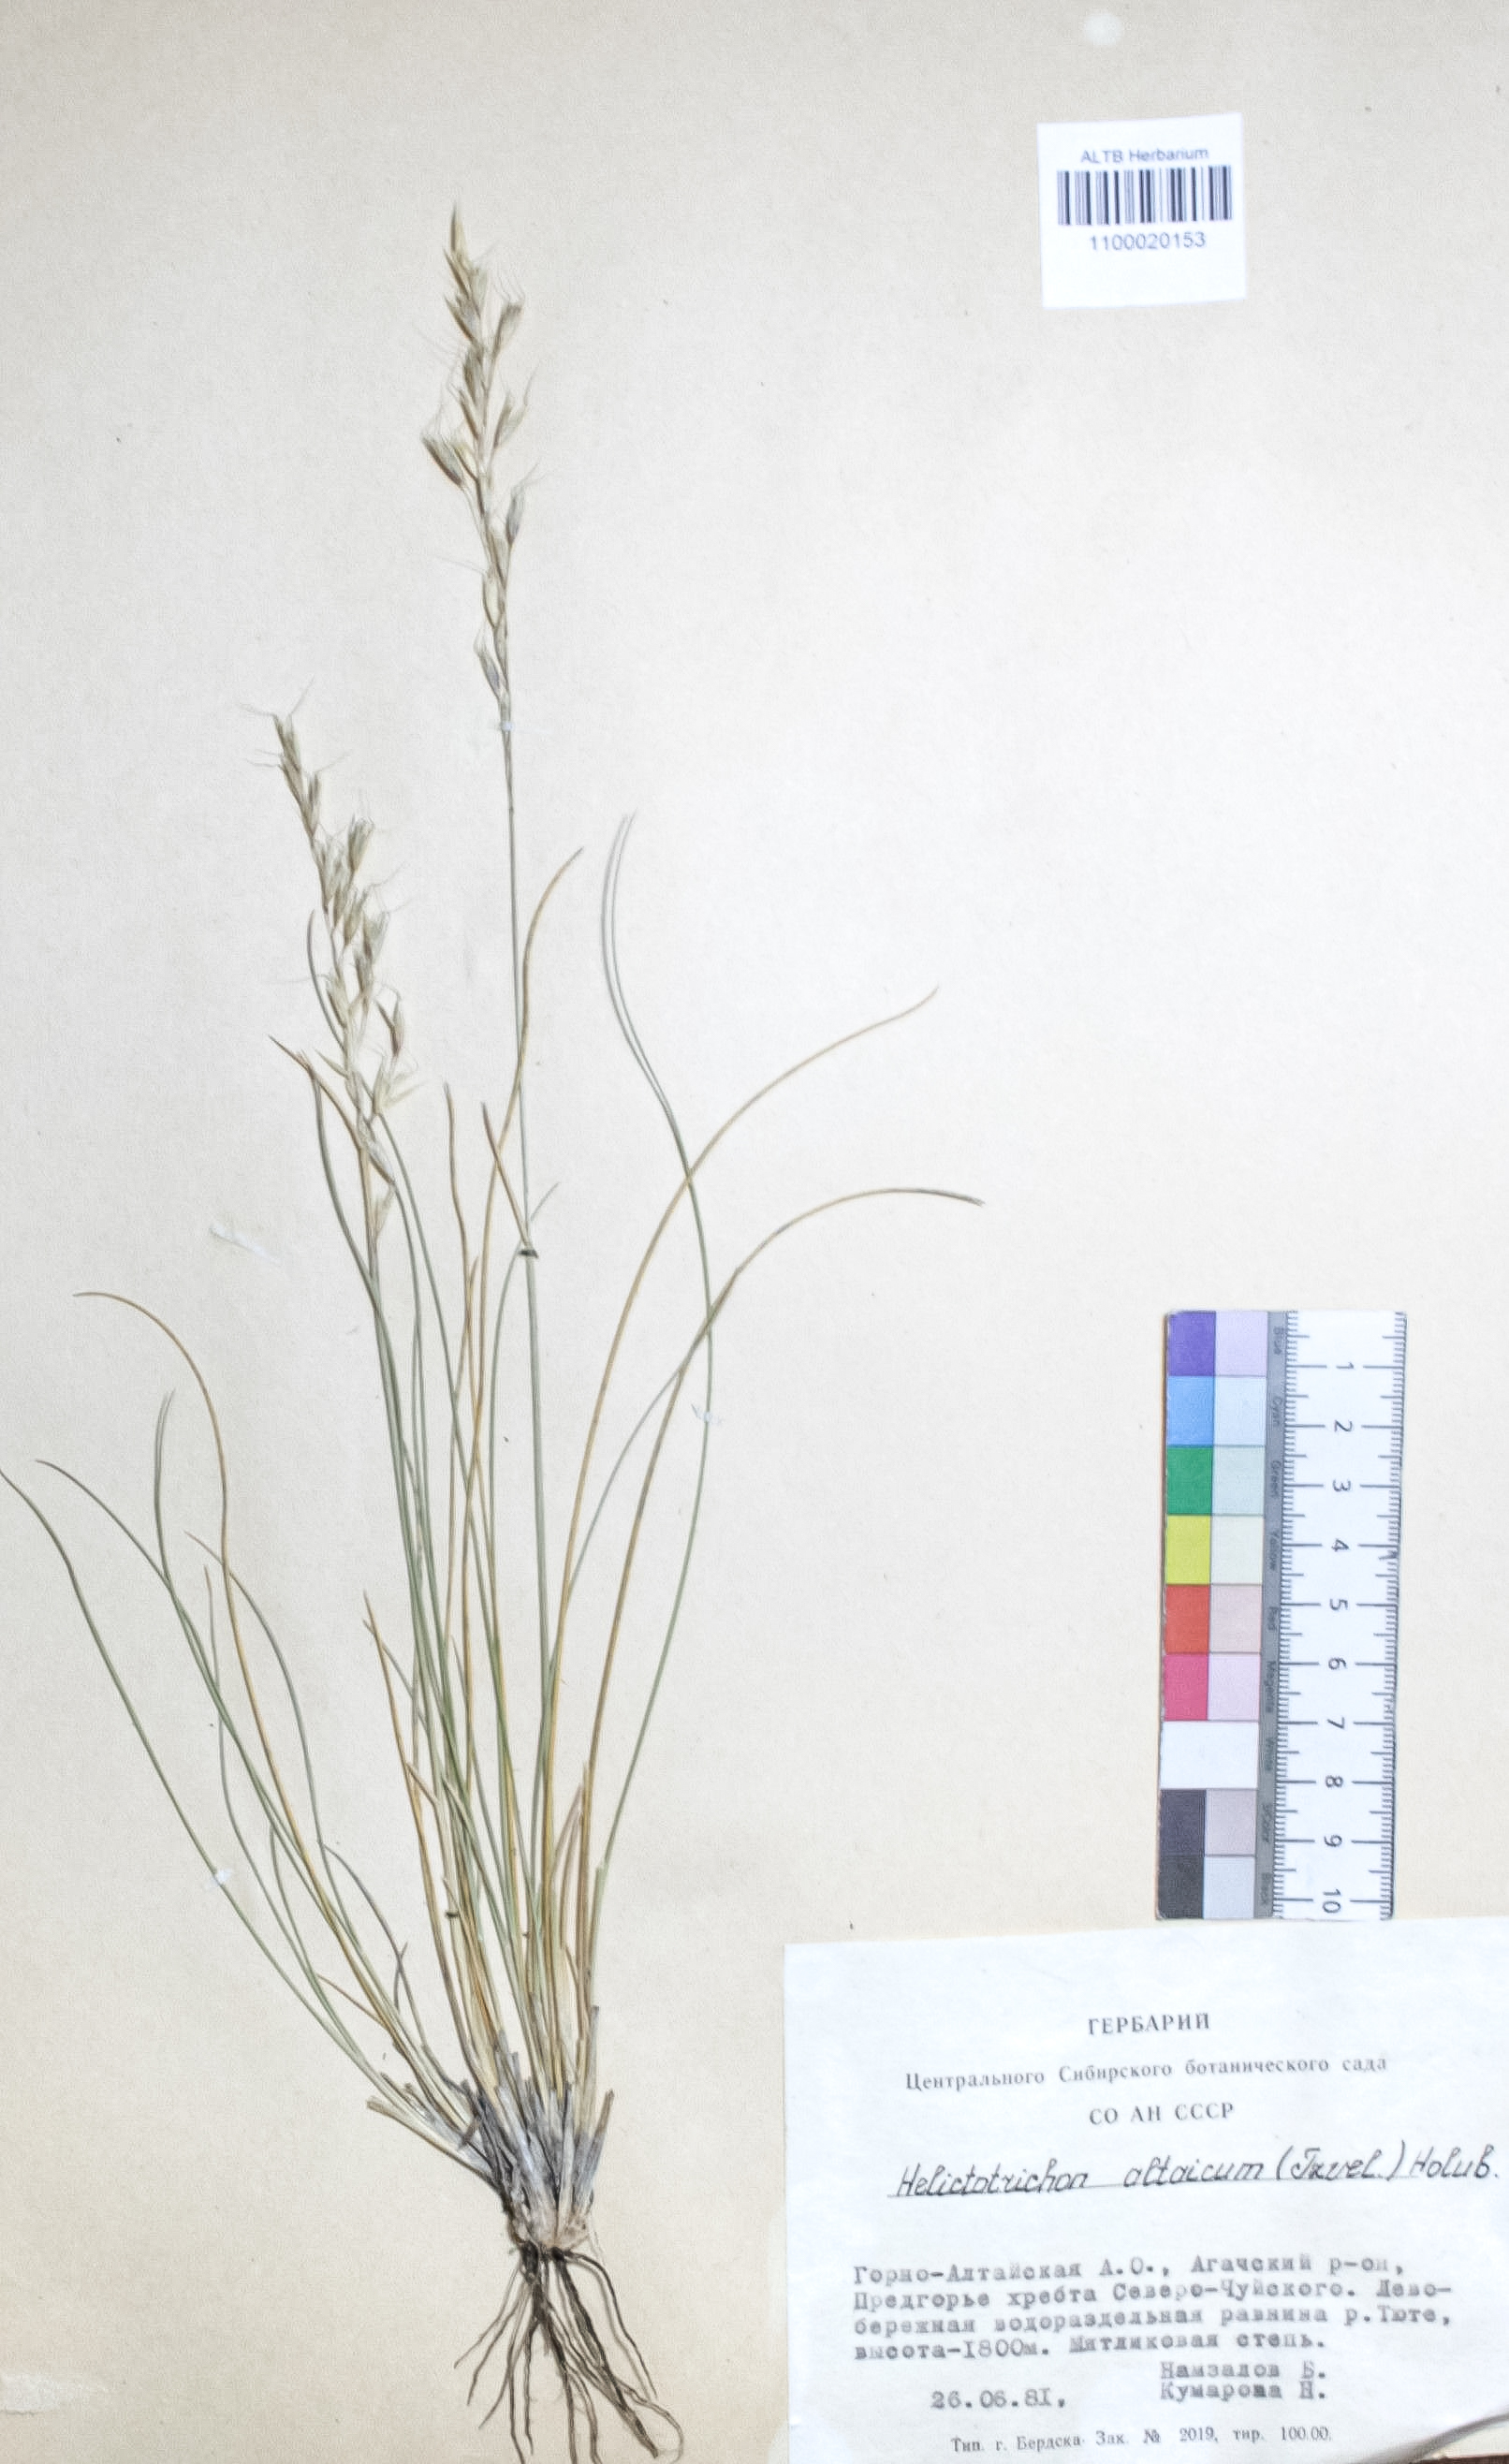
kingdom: Plantae
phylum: Tracheophyta
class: Liliopsida
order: Poales
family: Poaceae
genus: Helictotrichon
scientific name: Helictotrichon desertorum
